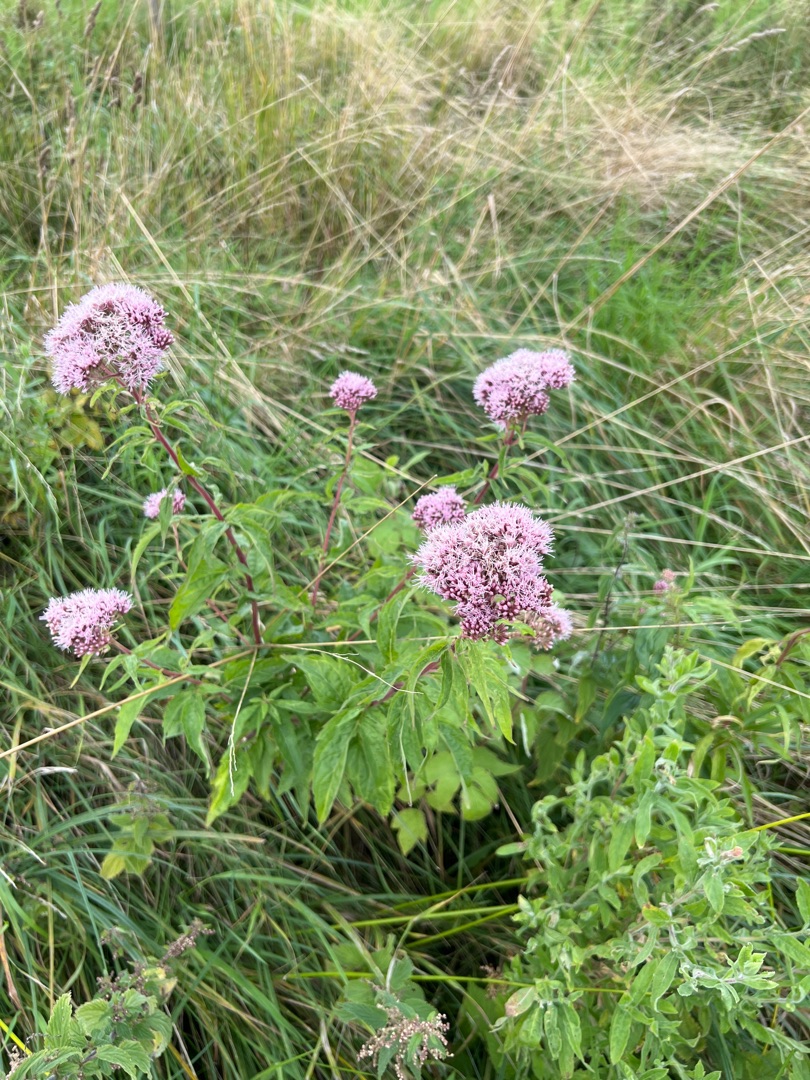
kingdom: Plantae
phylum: Tracheophyta
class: Magnoliopsida
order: Asterales
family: Asteraceae
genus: Eupatorium
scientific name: Eupatorium cannabinum
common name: Hjortetrøst
